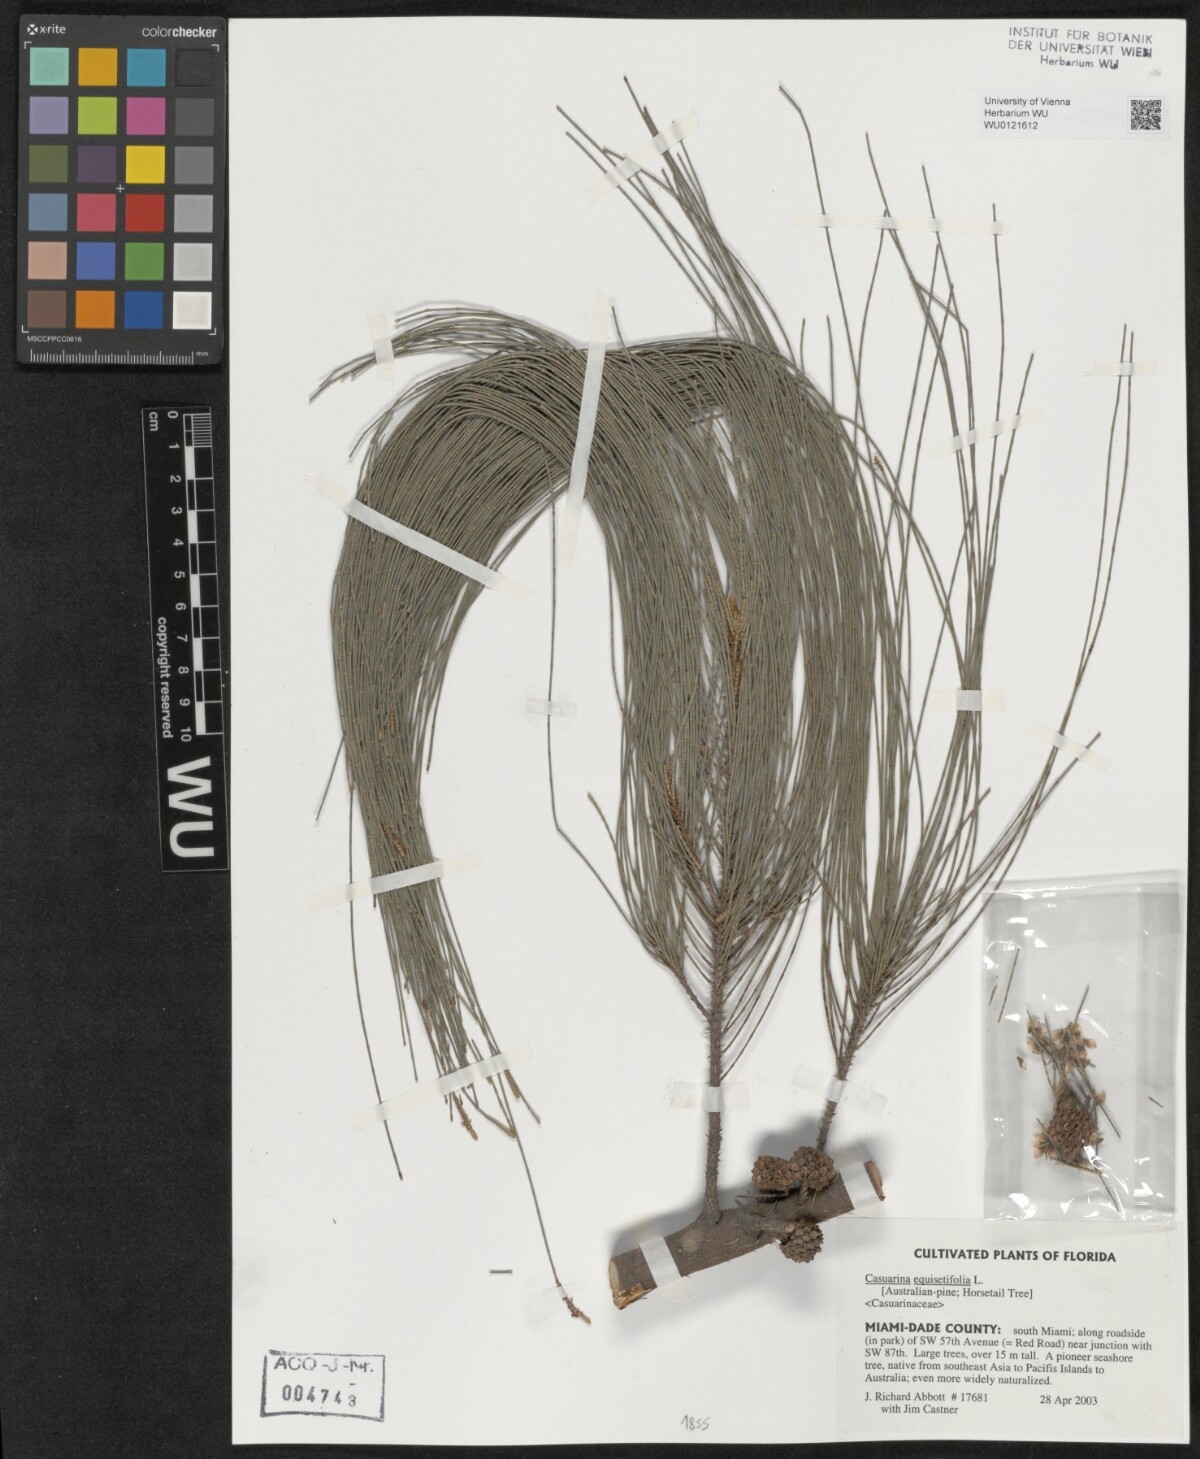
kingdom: Plantae
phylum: Tracheophyta
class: Magnoliopsida
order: Fagales
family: Casuarinaceae
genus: Casuarina
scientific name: Casuarina equisetifolia
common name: Beach sheoak
